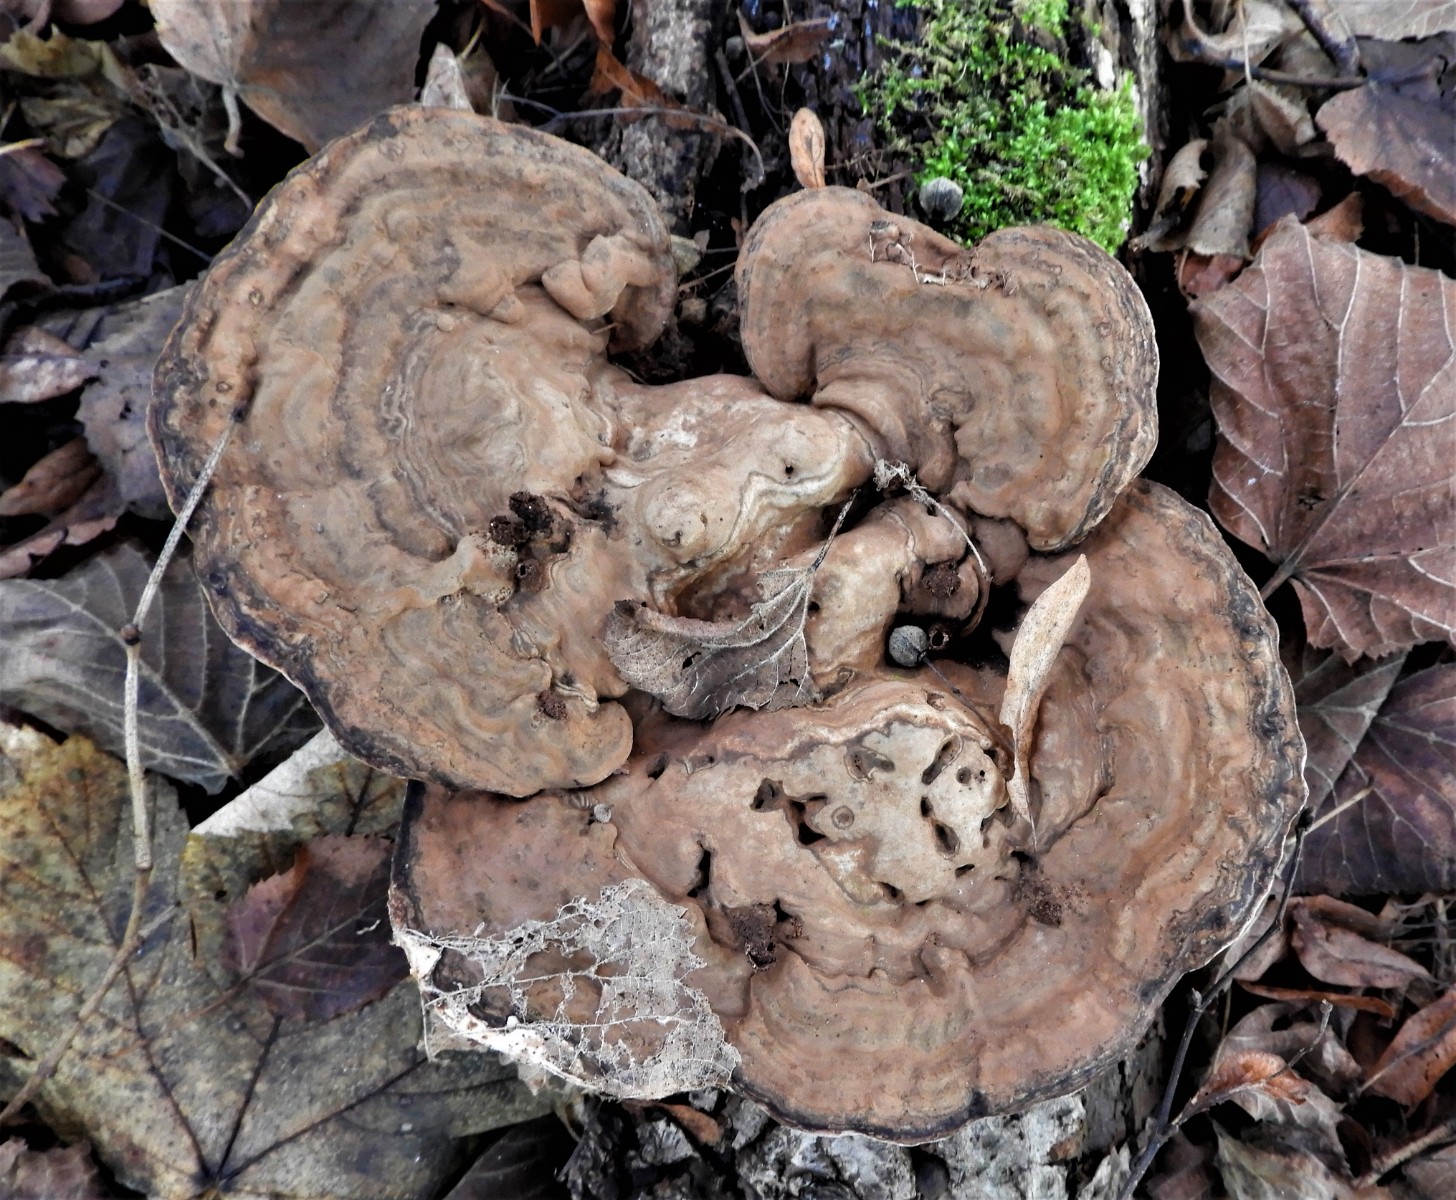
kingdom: Fungi
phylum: Basidiomycota
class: Agaricomycetes
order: Polyporales
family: Polyporaceae
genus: Ganoderma
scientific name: Ganoderma applanatum
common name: flad lakporesvamp
